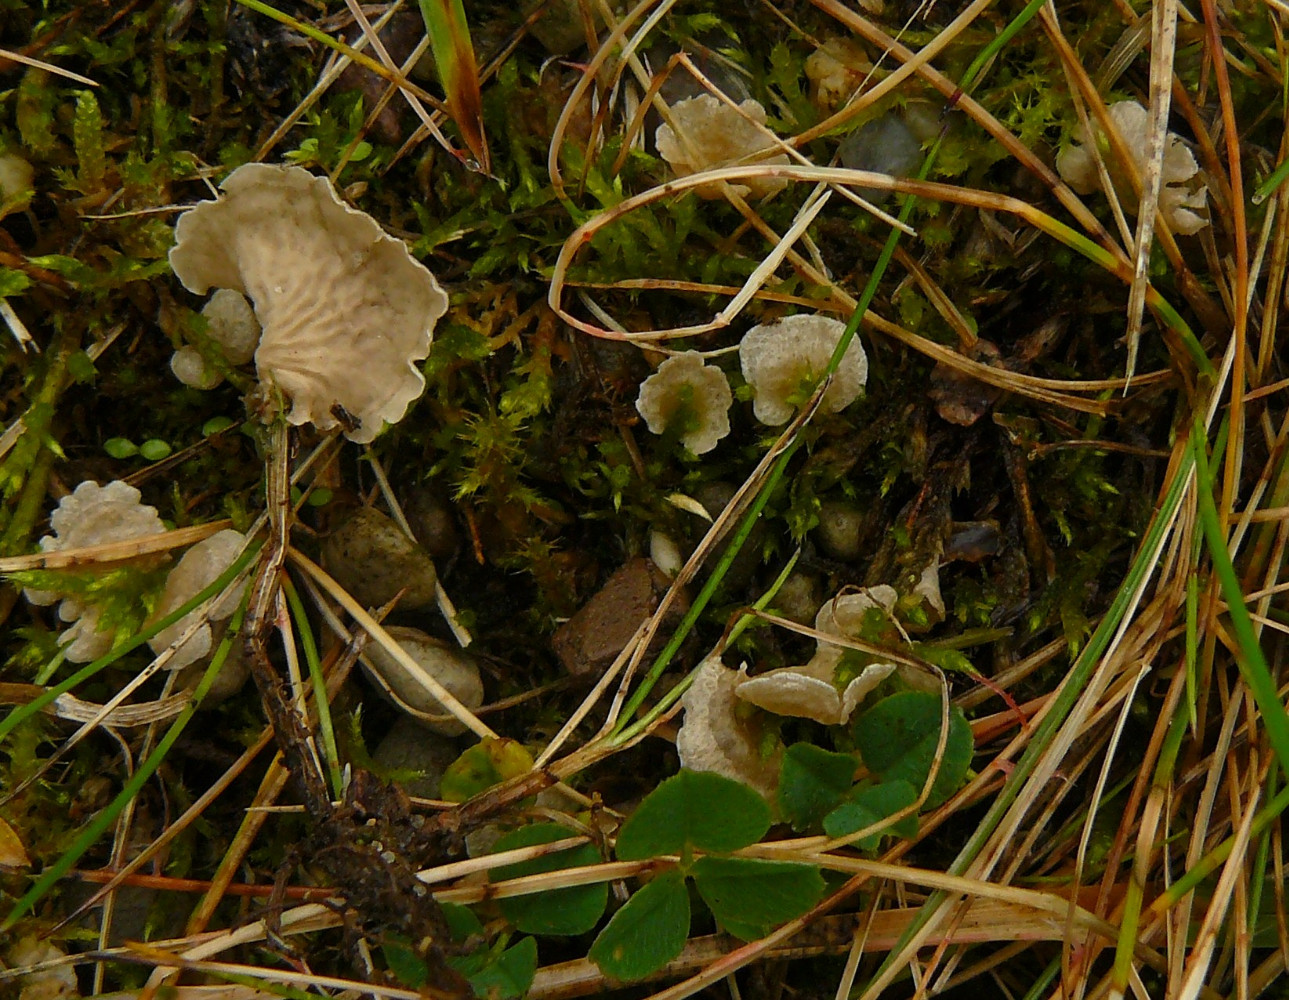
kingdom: Fungi
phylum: Basidiomycota
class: Agaricomycetes
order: Agaricales
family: Hygrophoraceae
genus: Arrhenia
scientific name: Arrhenia retiruga
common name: lille fontænehat
